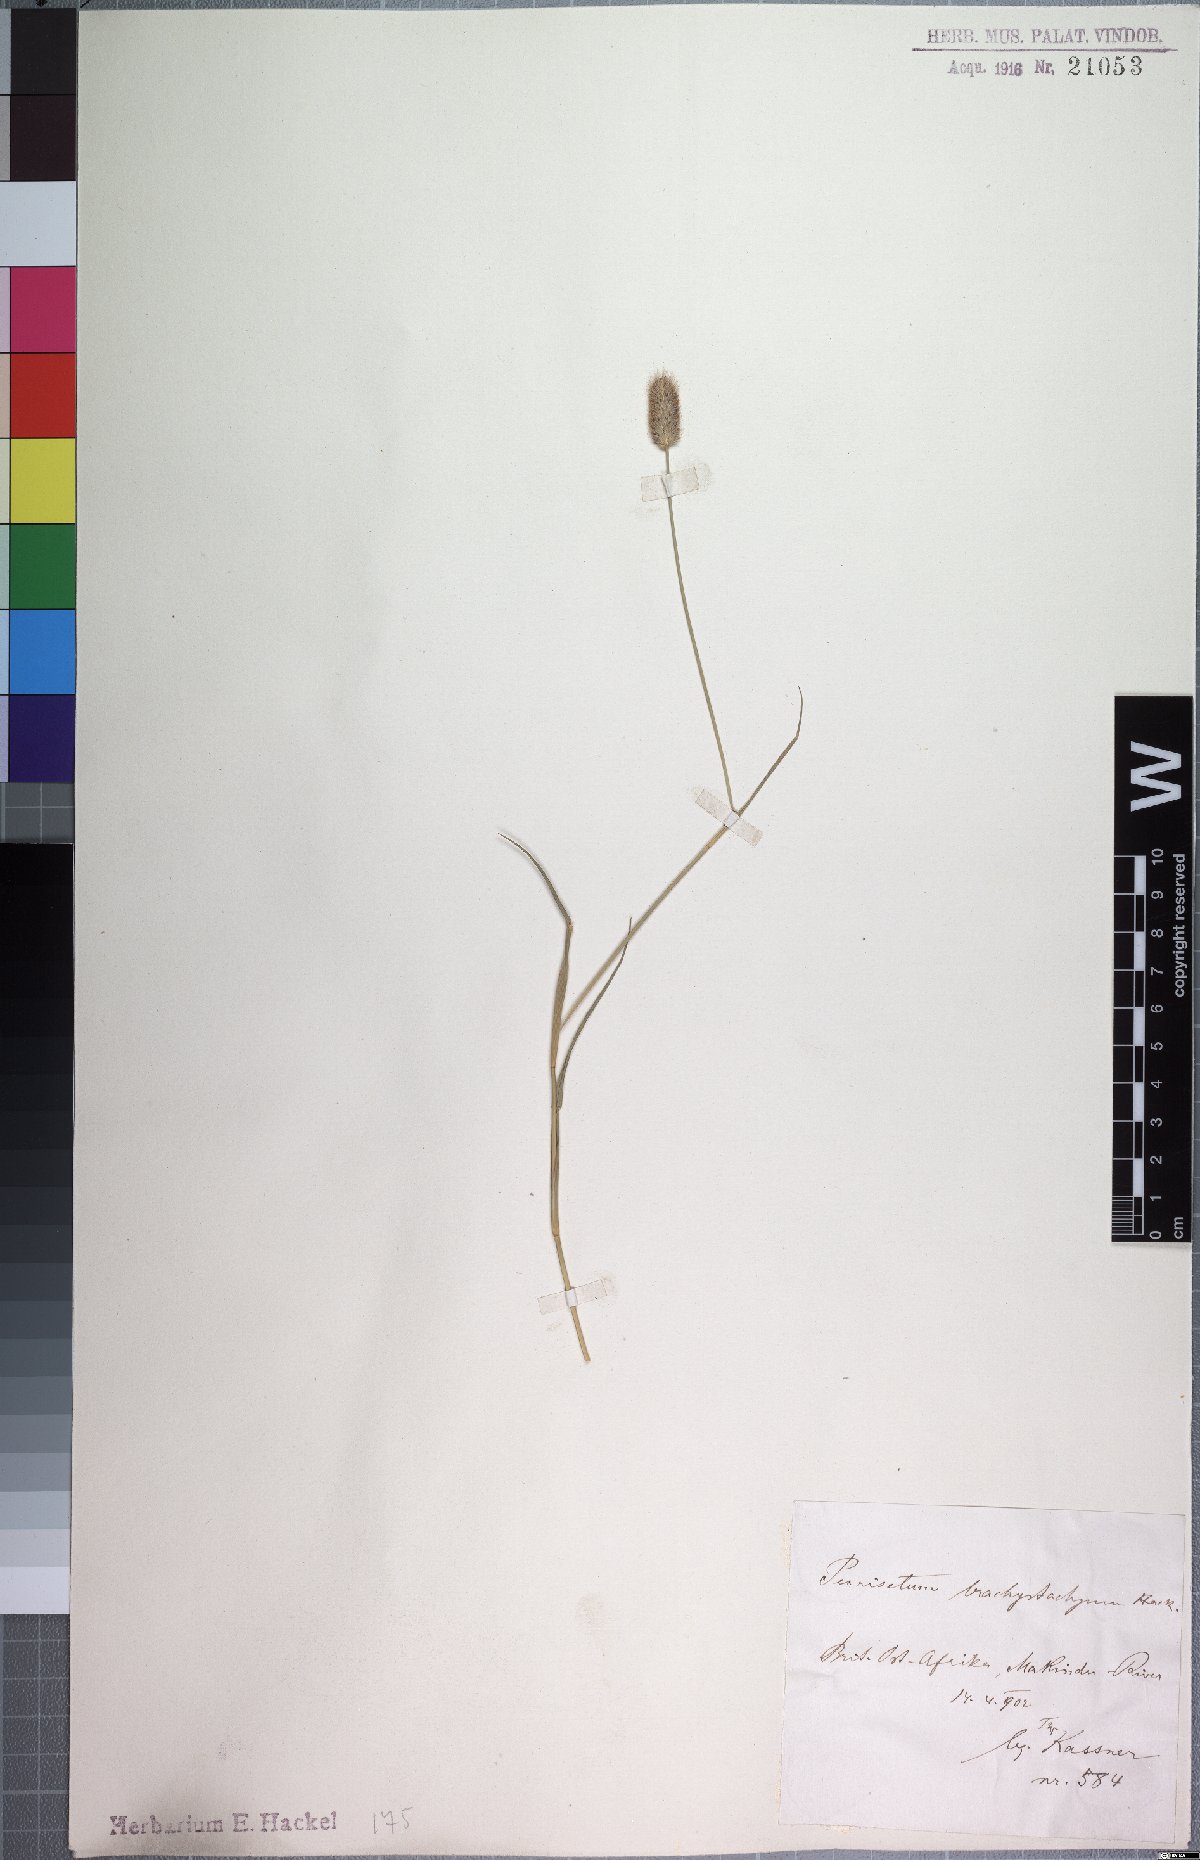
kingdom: Plantae
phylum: Tracheophyta
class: Liliopsida
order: Poales
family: Poaceae
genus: Cenchrus
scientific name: Cenchrus mezianus
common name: Bamboo grass
